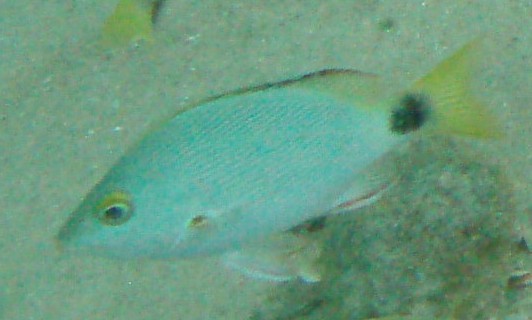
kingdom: Animalia
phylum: Chordata
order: Perciformes
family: Lutjanidae
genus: Lutjanus
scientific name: Lutjanus gibbus
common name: Humpback snapper
